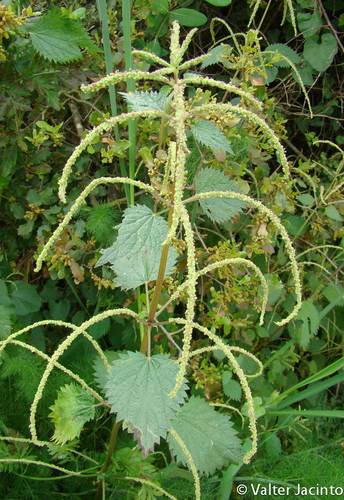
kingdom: Plantae
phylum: Tracheophyta
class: Magnoliopsida
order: Rosales
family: Urticaceae
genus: Urtica
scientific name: Urtica membranacea
